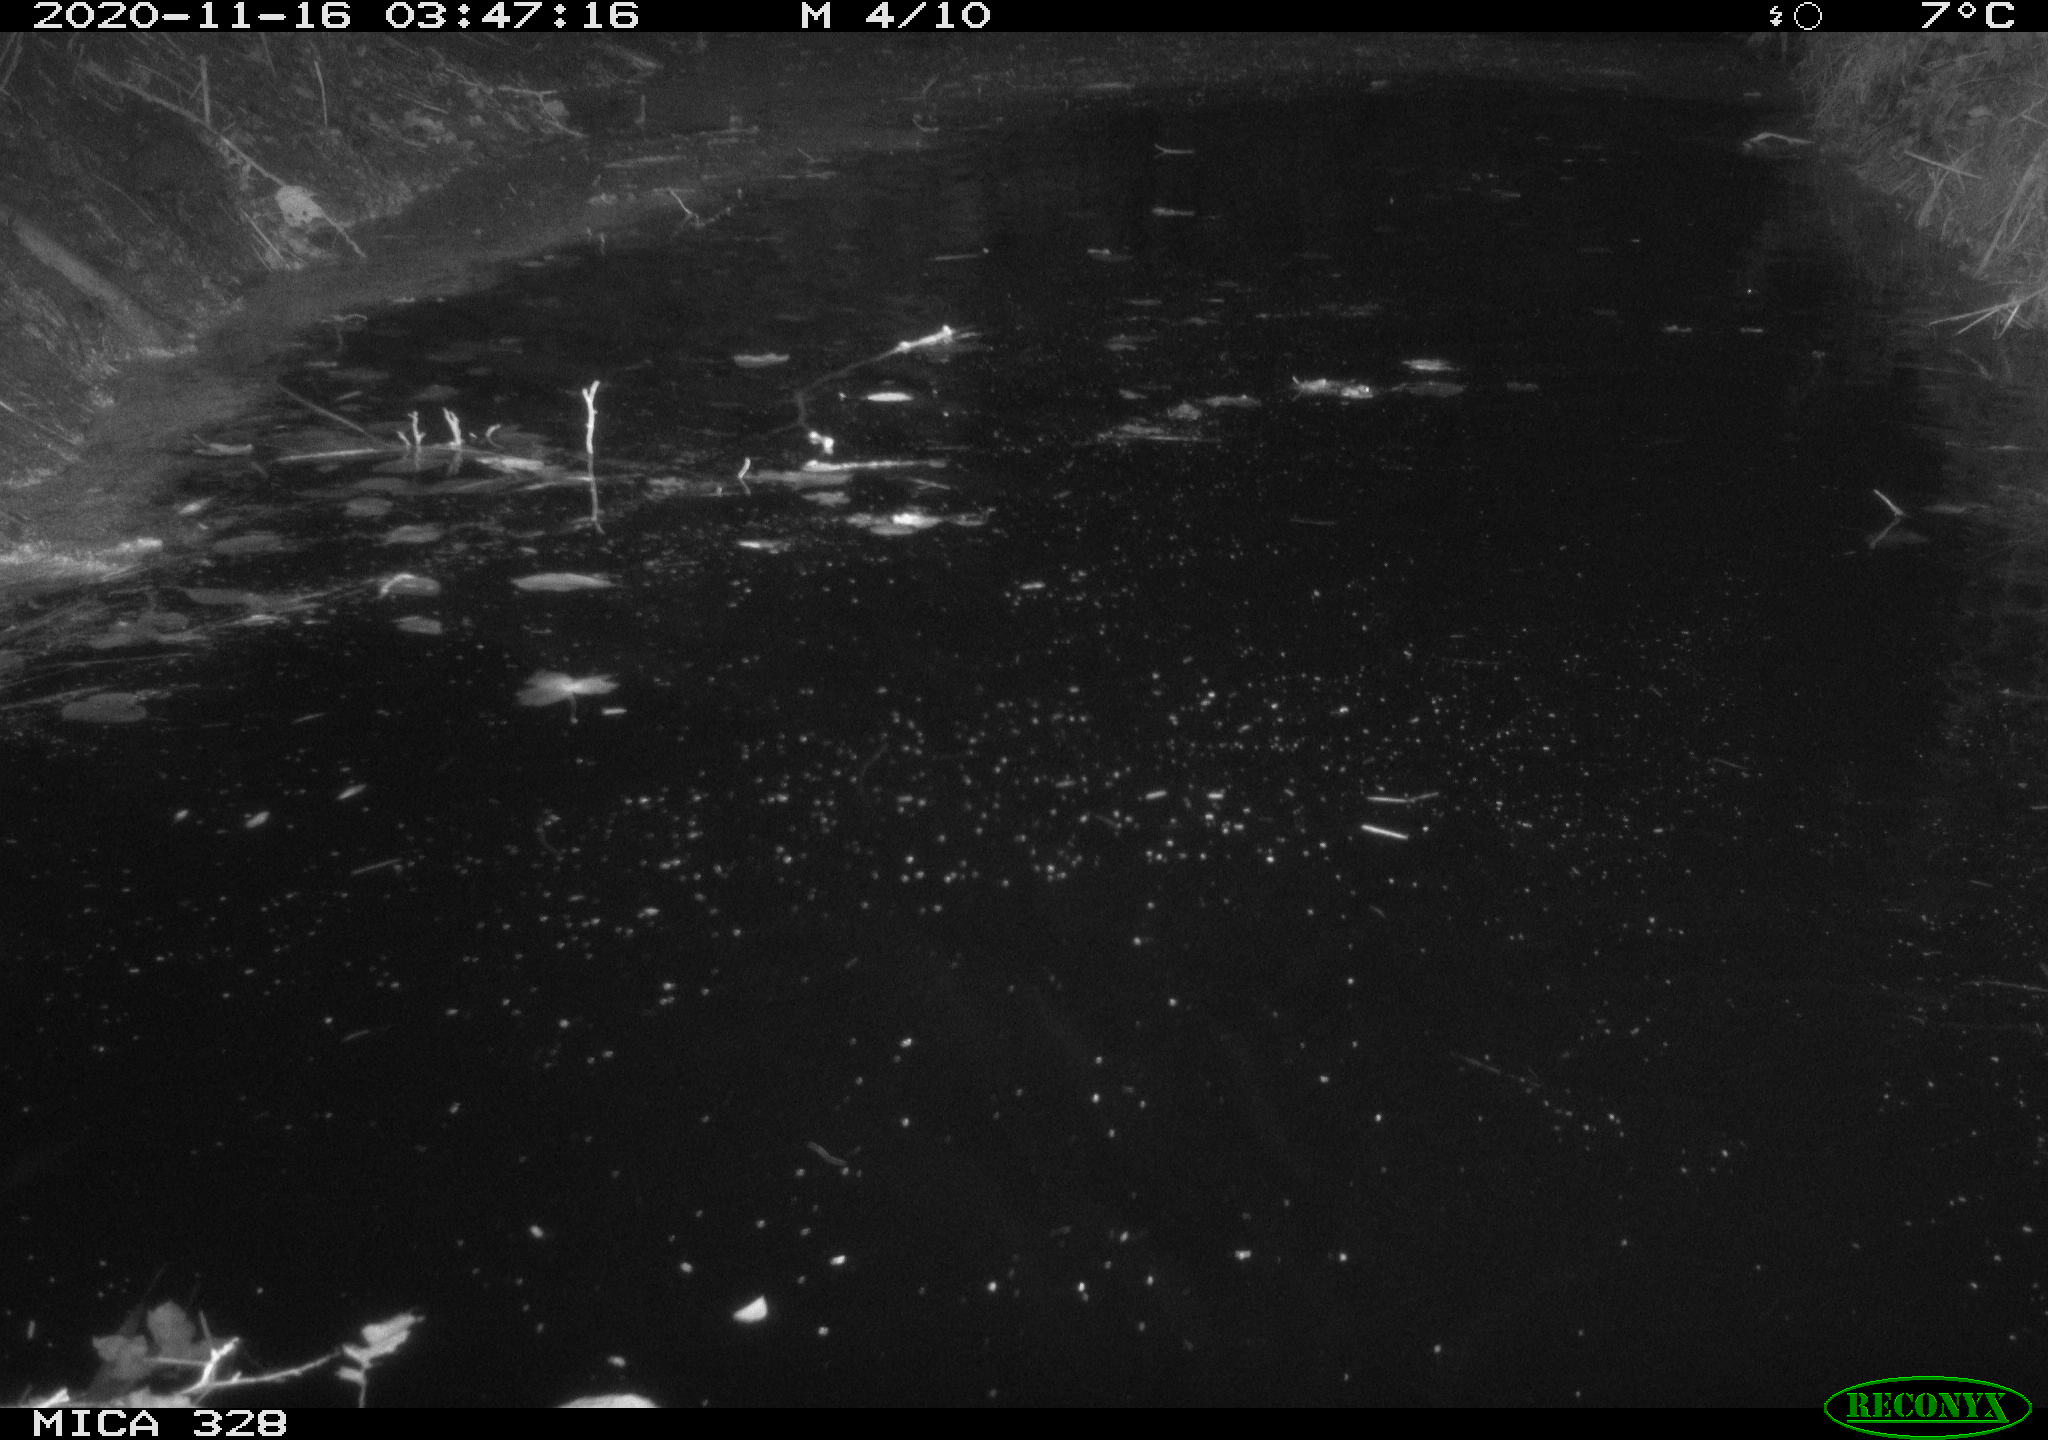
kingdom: Animalia
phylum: Chordata
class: Mammalia
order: Rodentia
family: Myocastoridae
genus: Myocastor
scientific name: Myocastor coypus
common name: Coypu
